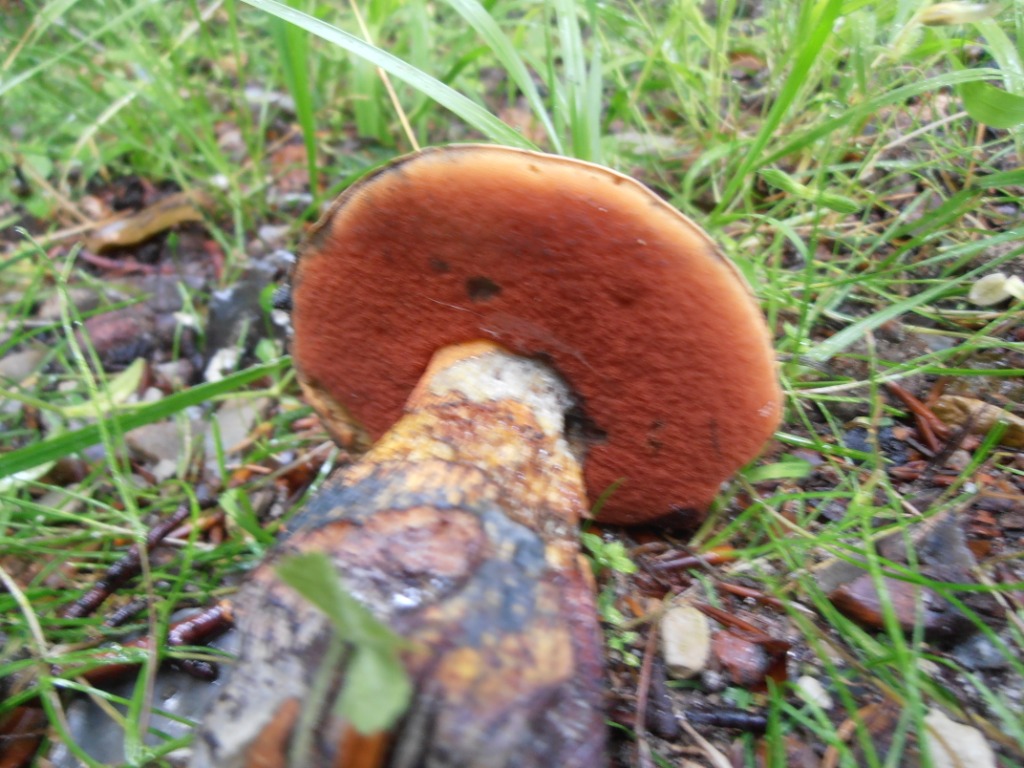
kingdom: Fungi
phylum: Basidiomycota
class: Agaricomycetes
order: Boletales
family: Boletaceae
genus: Suillellus
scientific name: Suillellus luridus
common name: netstokket indigorørhat
